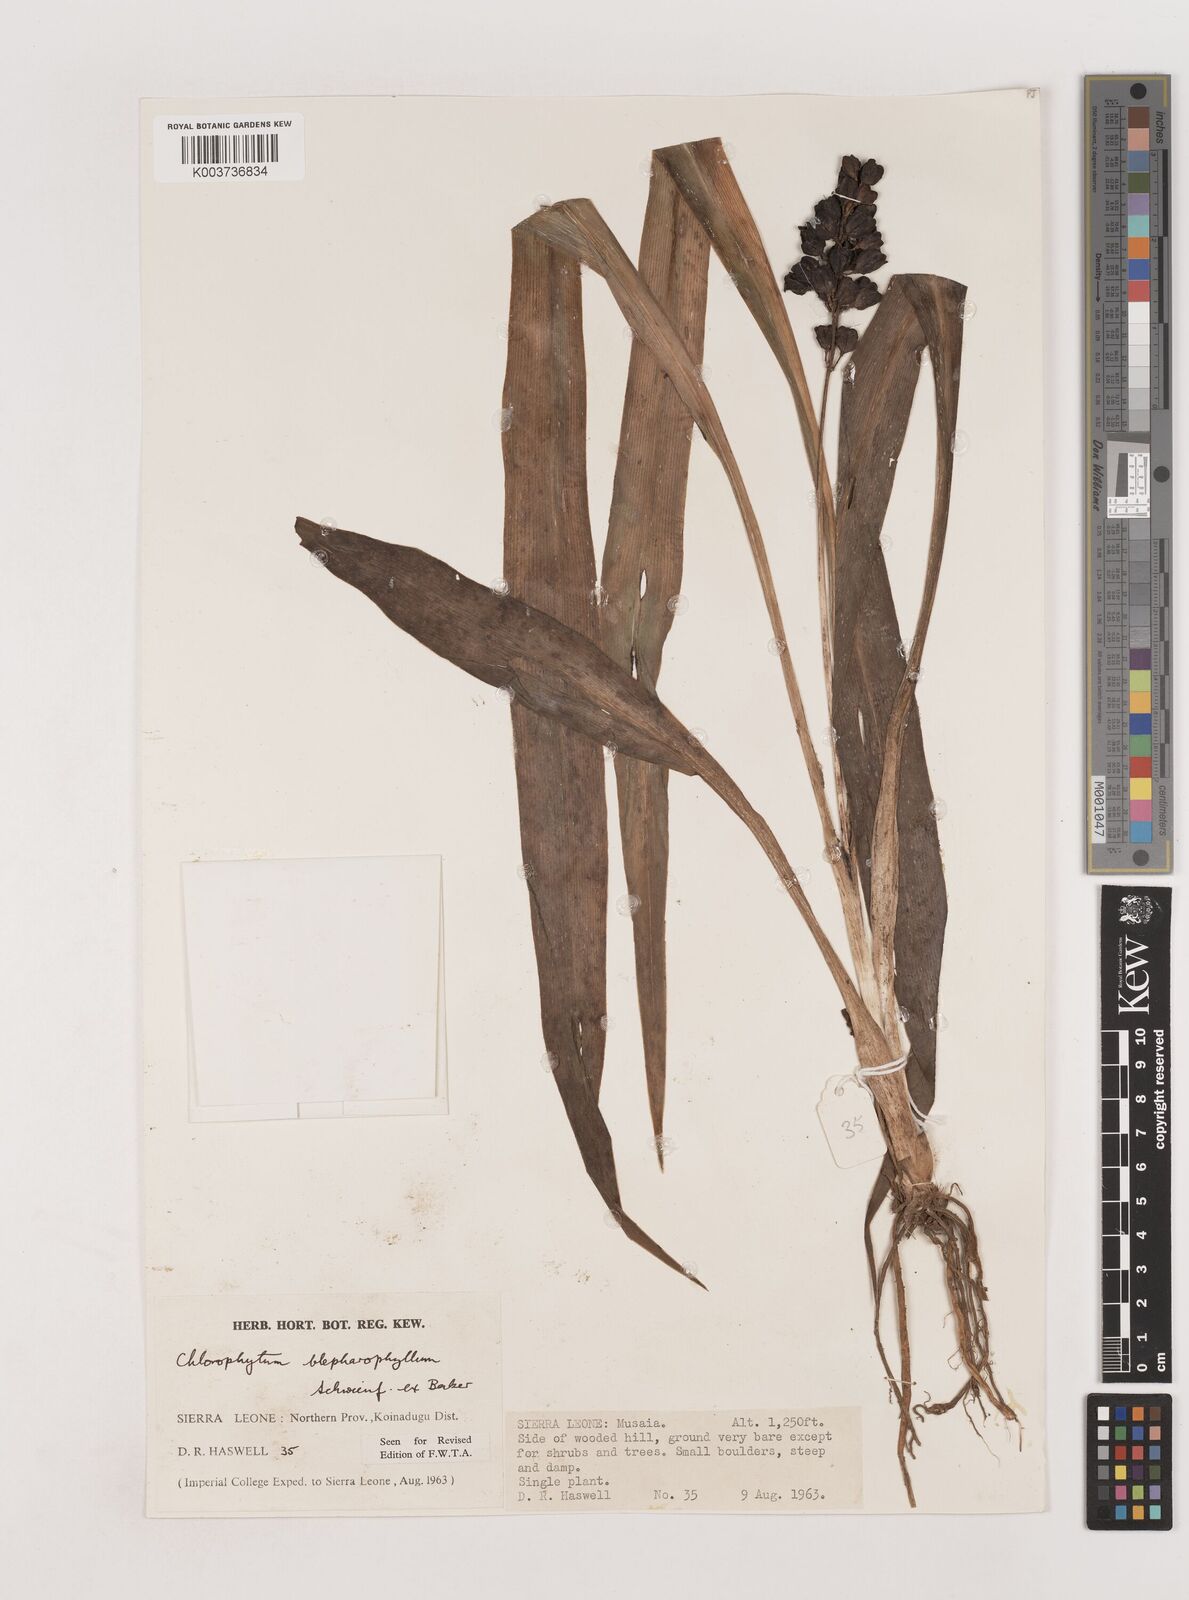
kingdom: Plantae
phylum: Tracheophyta
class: Liliopsida
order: Asparagales
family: Asparagaceae
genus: Chlorophytum
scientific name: Chlorophytum blepharophyllum
